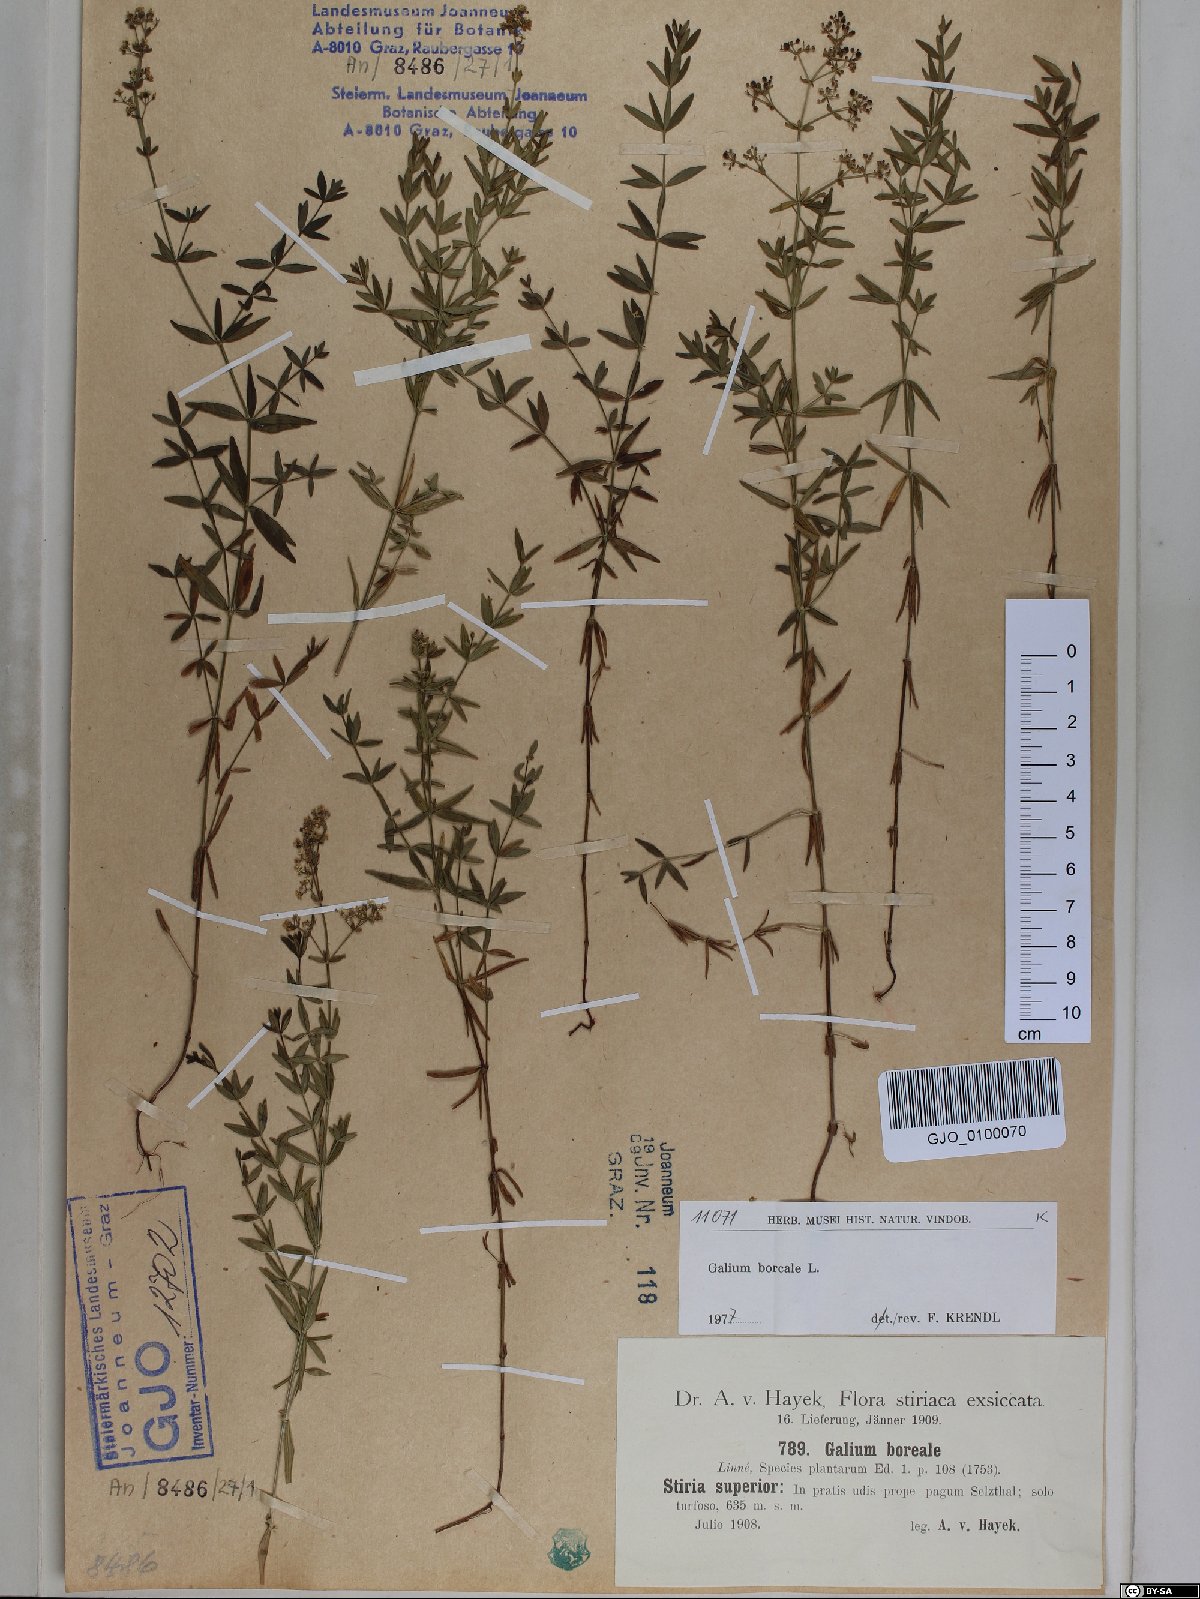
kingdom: Plantae
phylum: Tracheophyta
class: Magnoliopsida
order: Gentianales
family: Rubiaceae
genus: Galium
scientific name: Galium boreale
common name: Northern bedstraw
